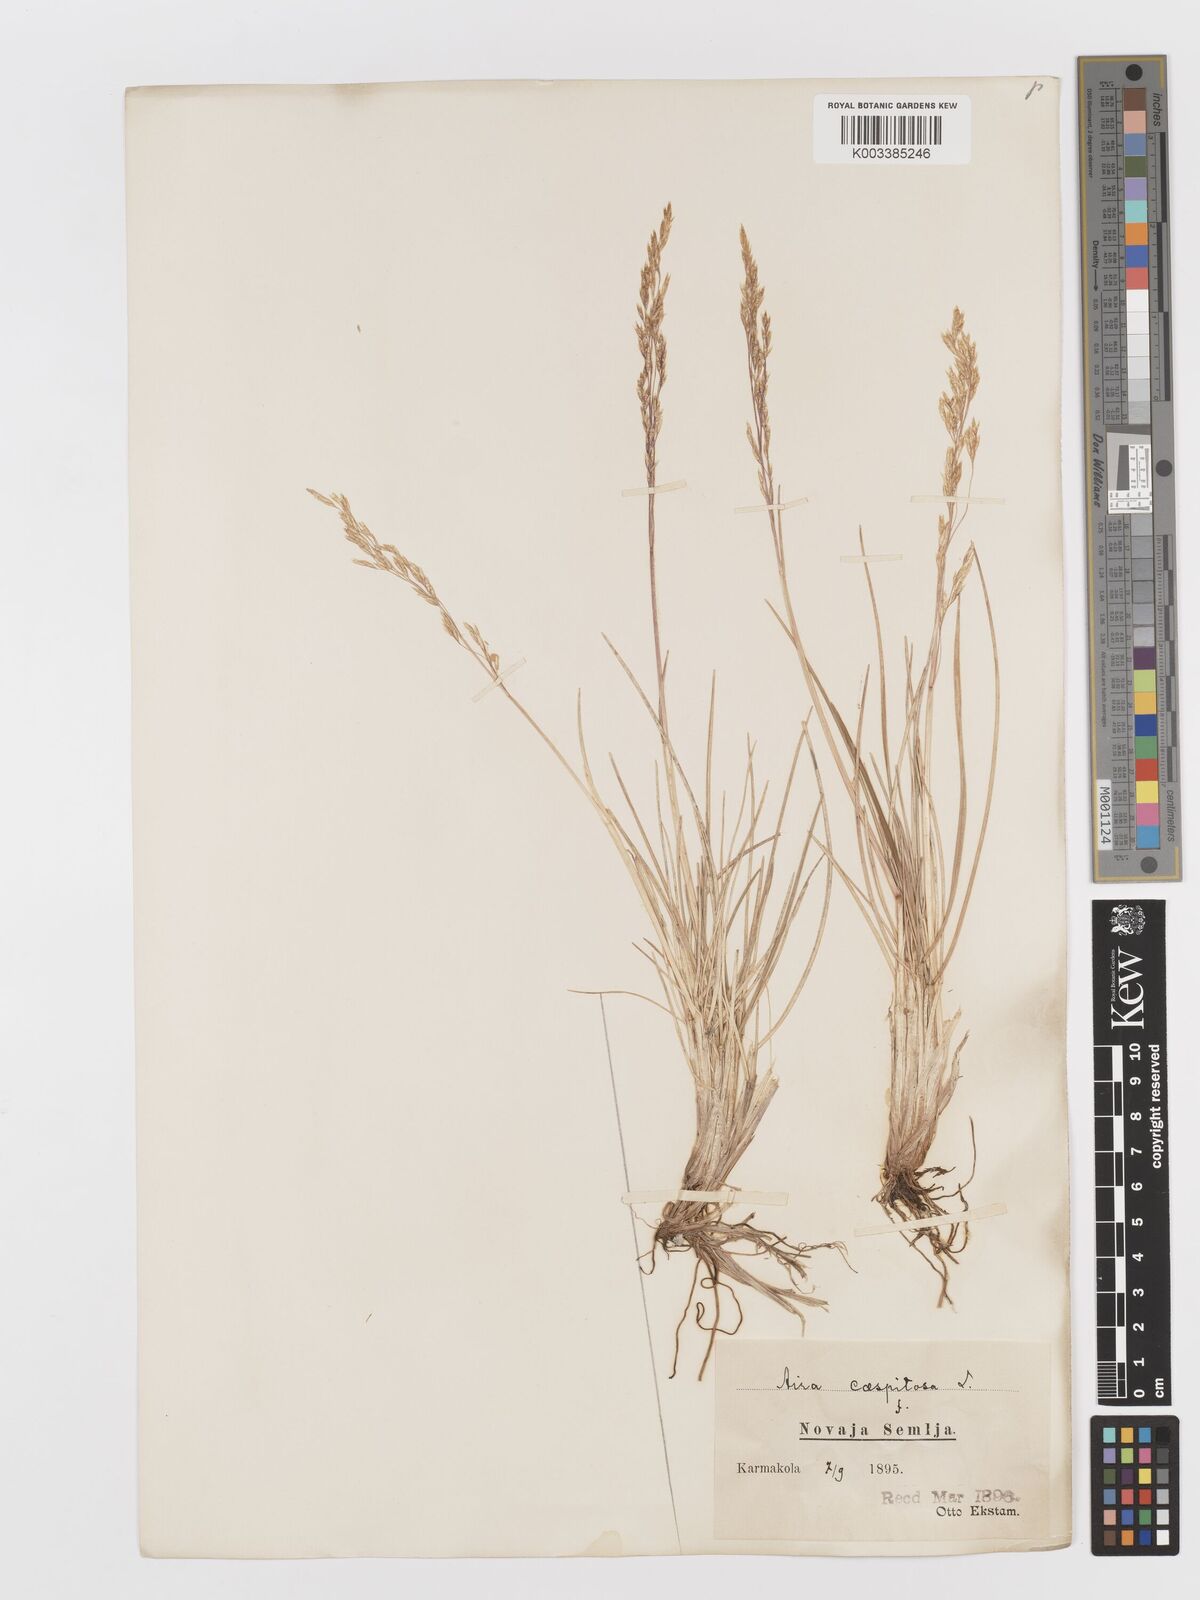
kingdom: Plantae
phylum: Tracheophyta
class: Liliopsida
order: Poales
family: Poaceae
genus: Deschampsia
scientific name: Deschampsia cespitosa
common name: Tufted hair-grass
